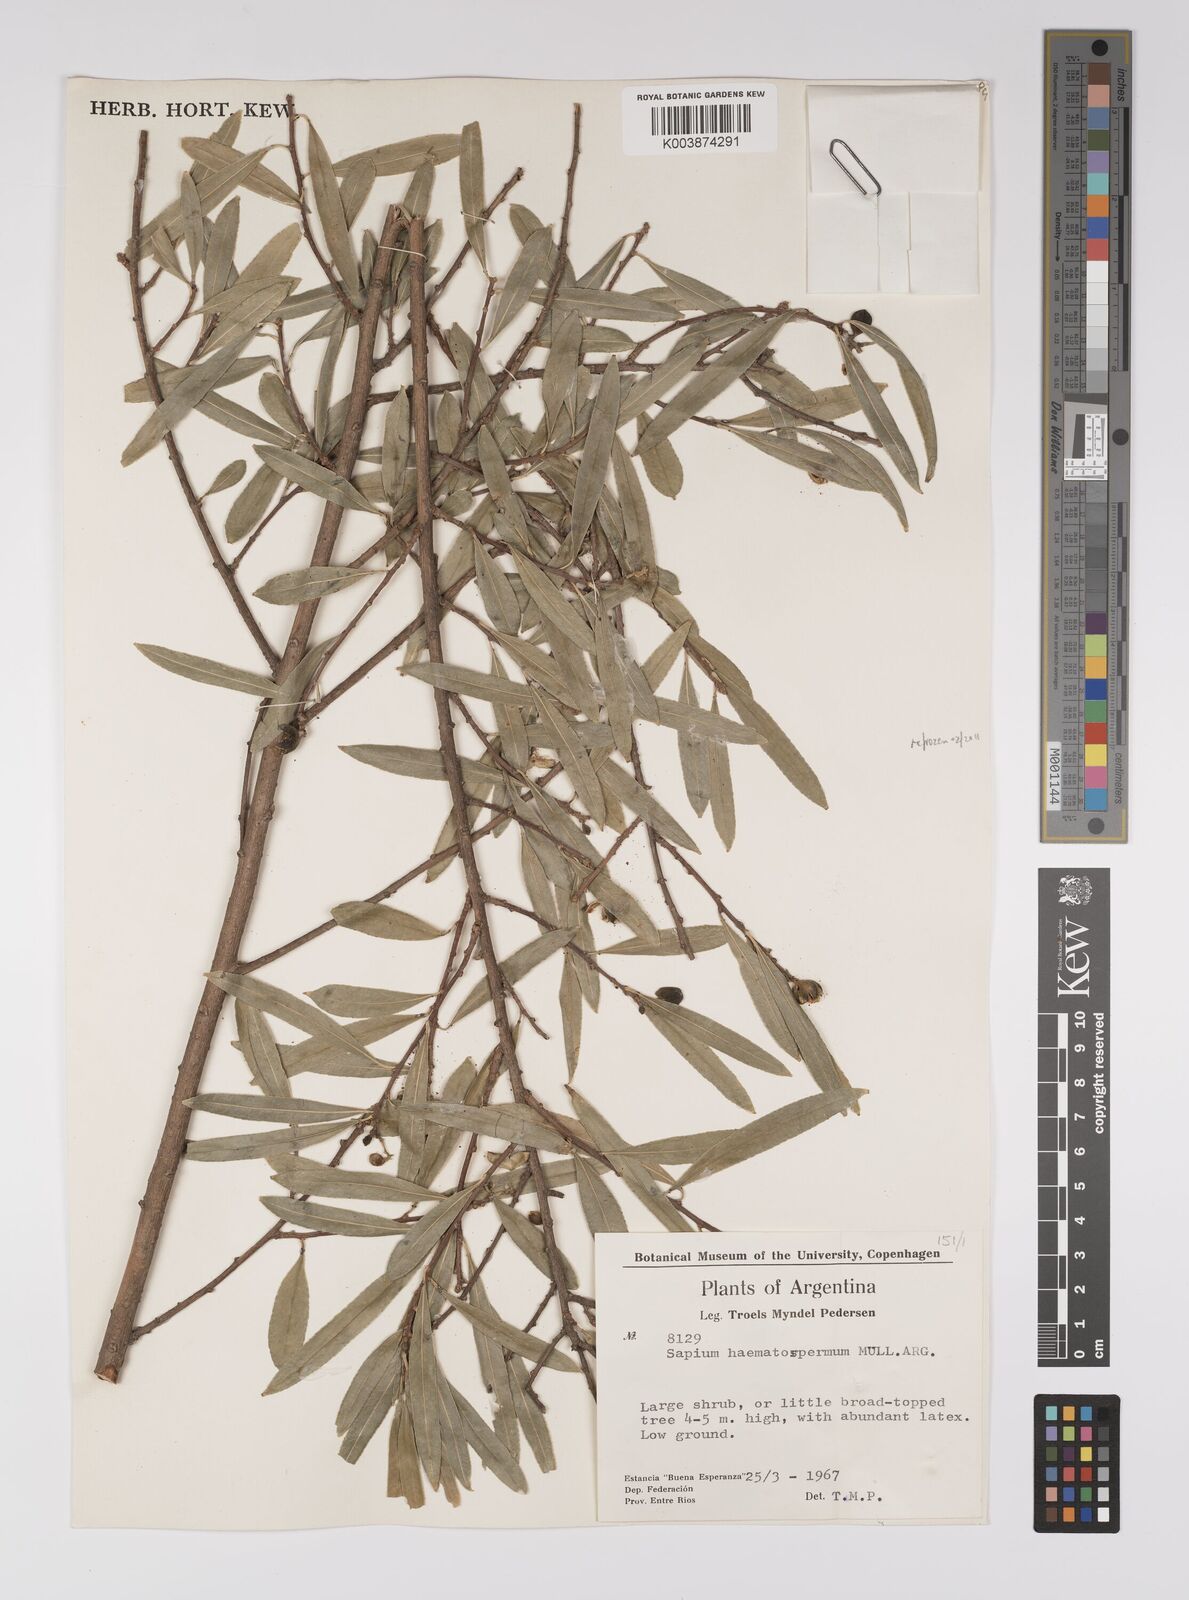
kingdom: Plantae
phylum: Tracheophyta
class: Magnoliopsida
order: Malpighiales
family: Euphorbiaceae
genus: Sapium
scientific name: Sapium haematospermum
